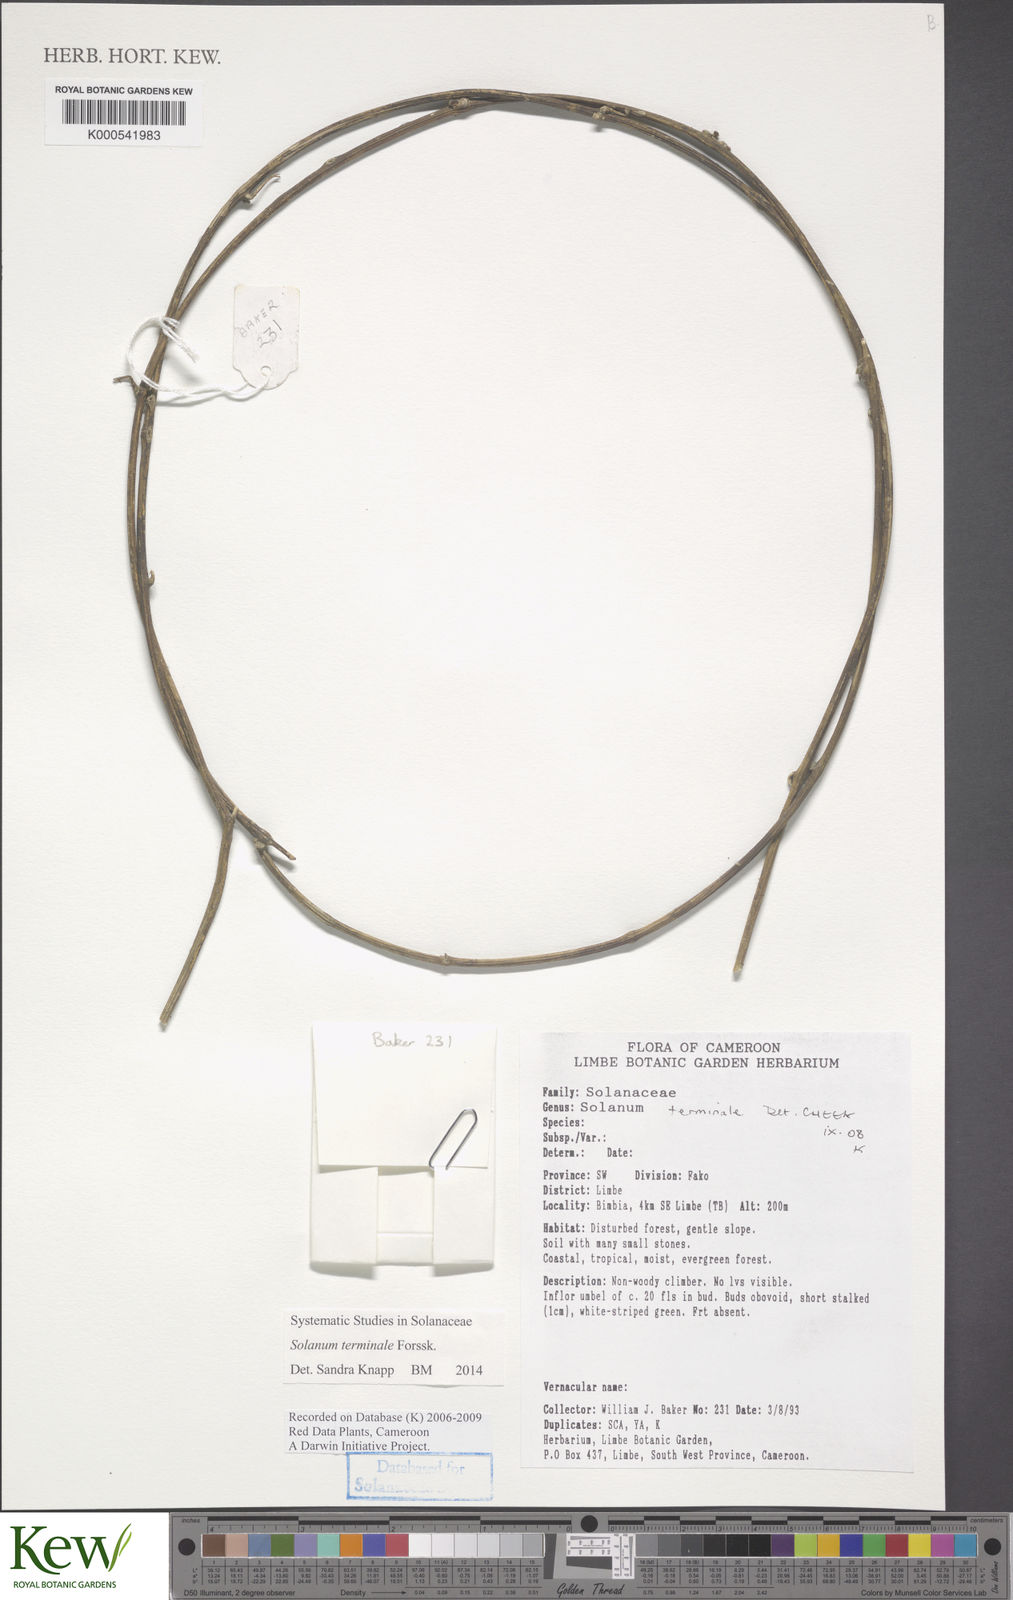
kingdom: Plantae
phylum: Tracheophyta
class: Magnoliopsida
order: Solanales
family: Solanaceae
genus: Solanum
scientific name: Solanum terminale
